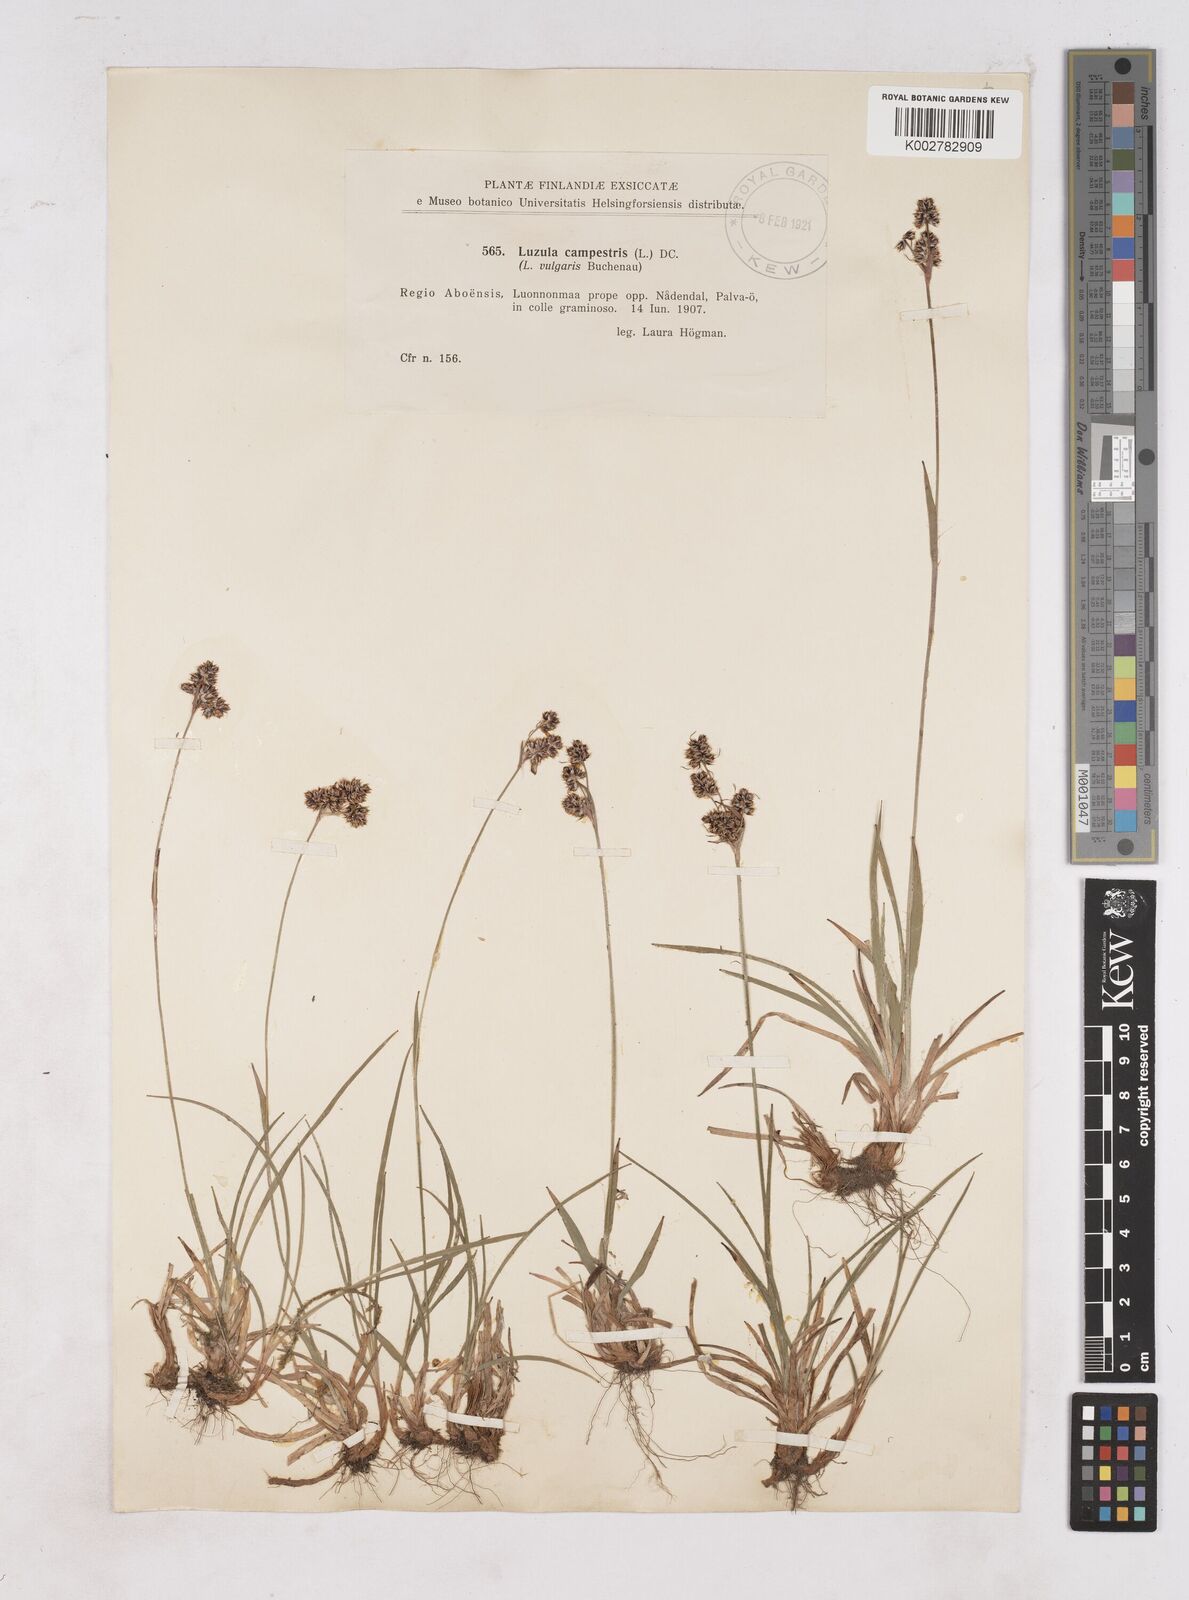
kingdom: Plantae
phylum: Tracheophyta
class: Liliopsida
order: Poales
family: Juncaceae
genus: Luzula
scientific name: Luzula campestris
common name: Field wood-rush
